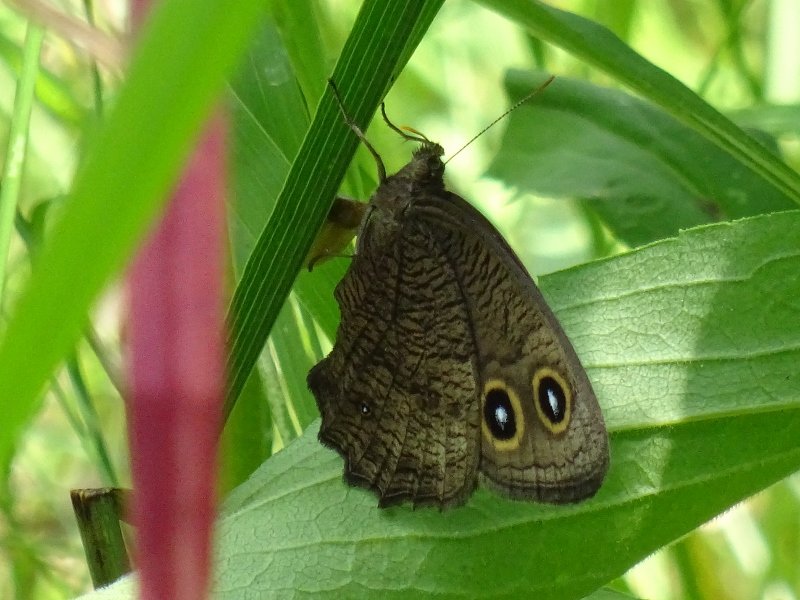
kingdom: Animalia
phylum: Arthropoda
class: Insecta
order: Lepidoptera
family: Nymphalidae
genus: Cercyonis
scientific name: Cercyonis pegala
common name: Common Wood-Nymph
